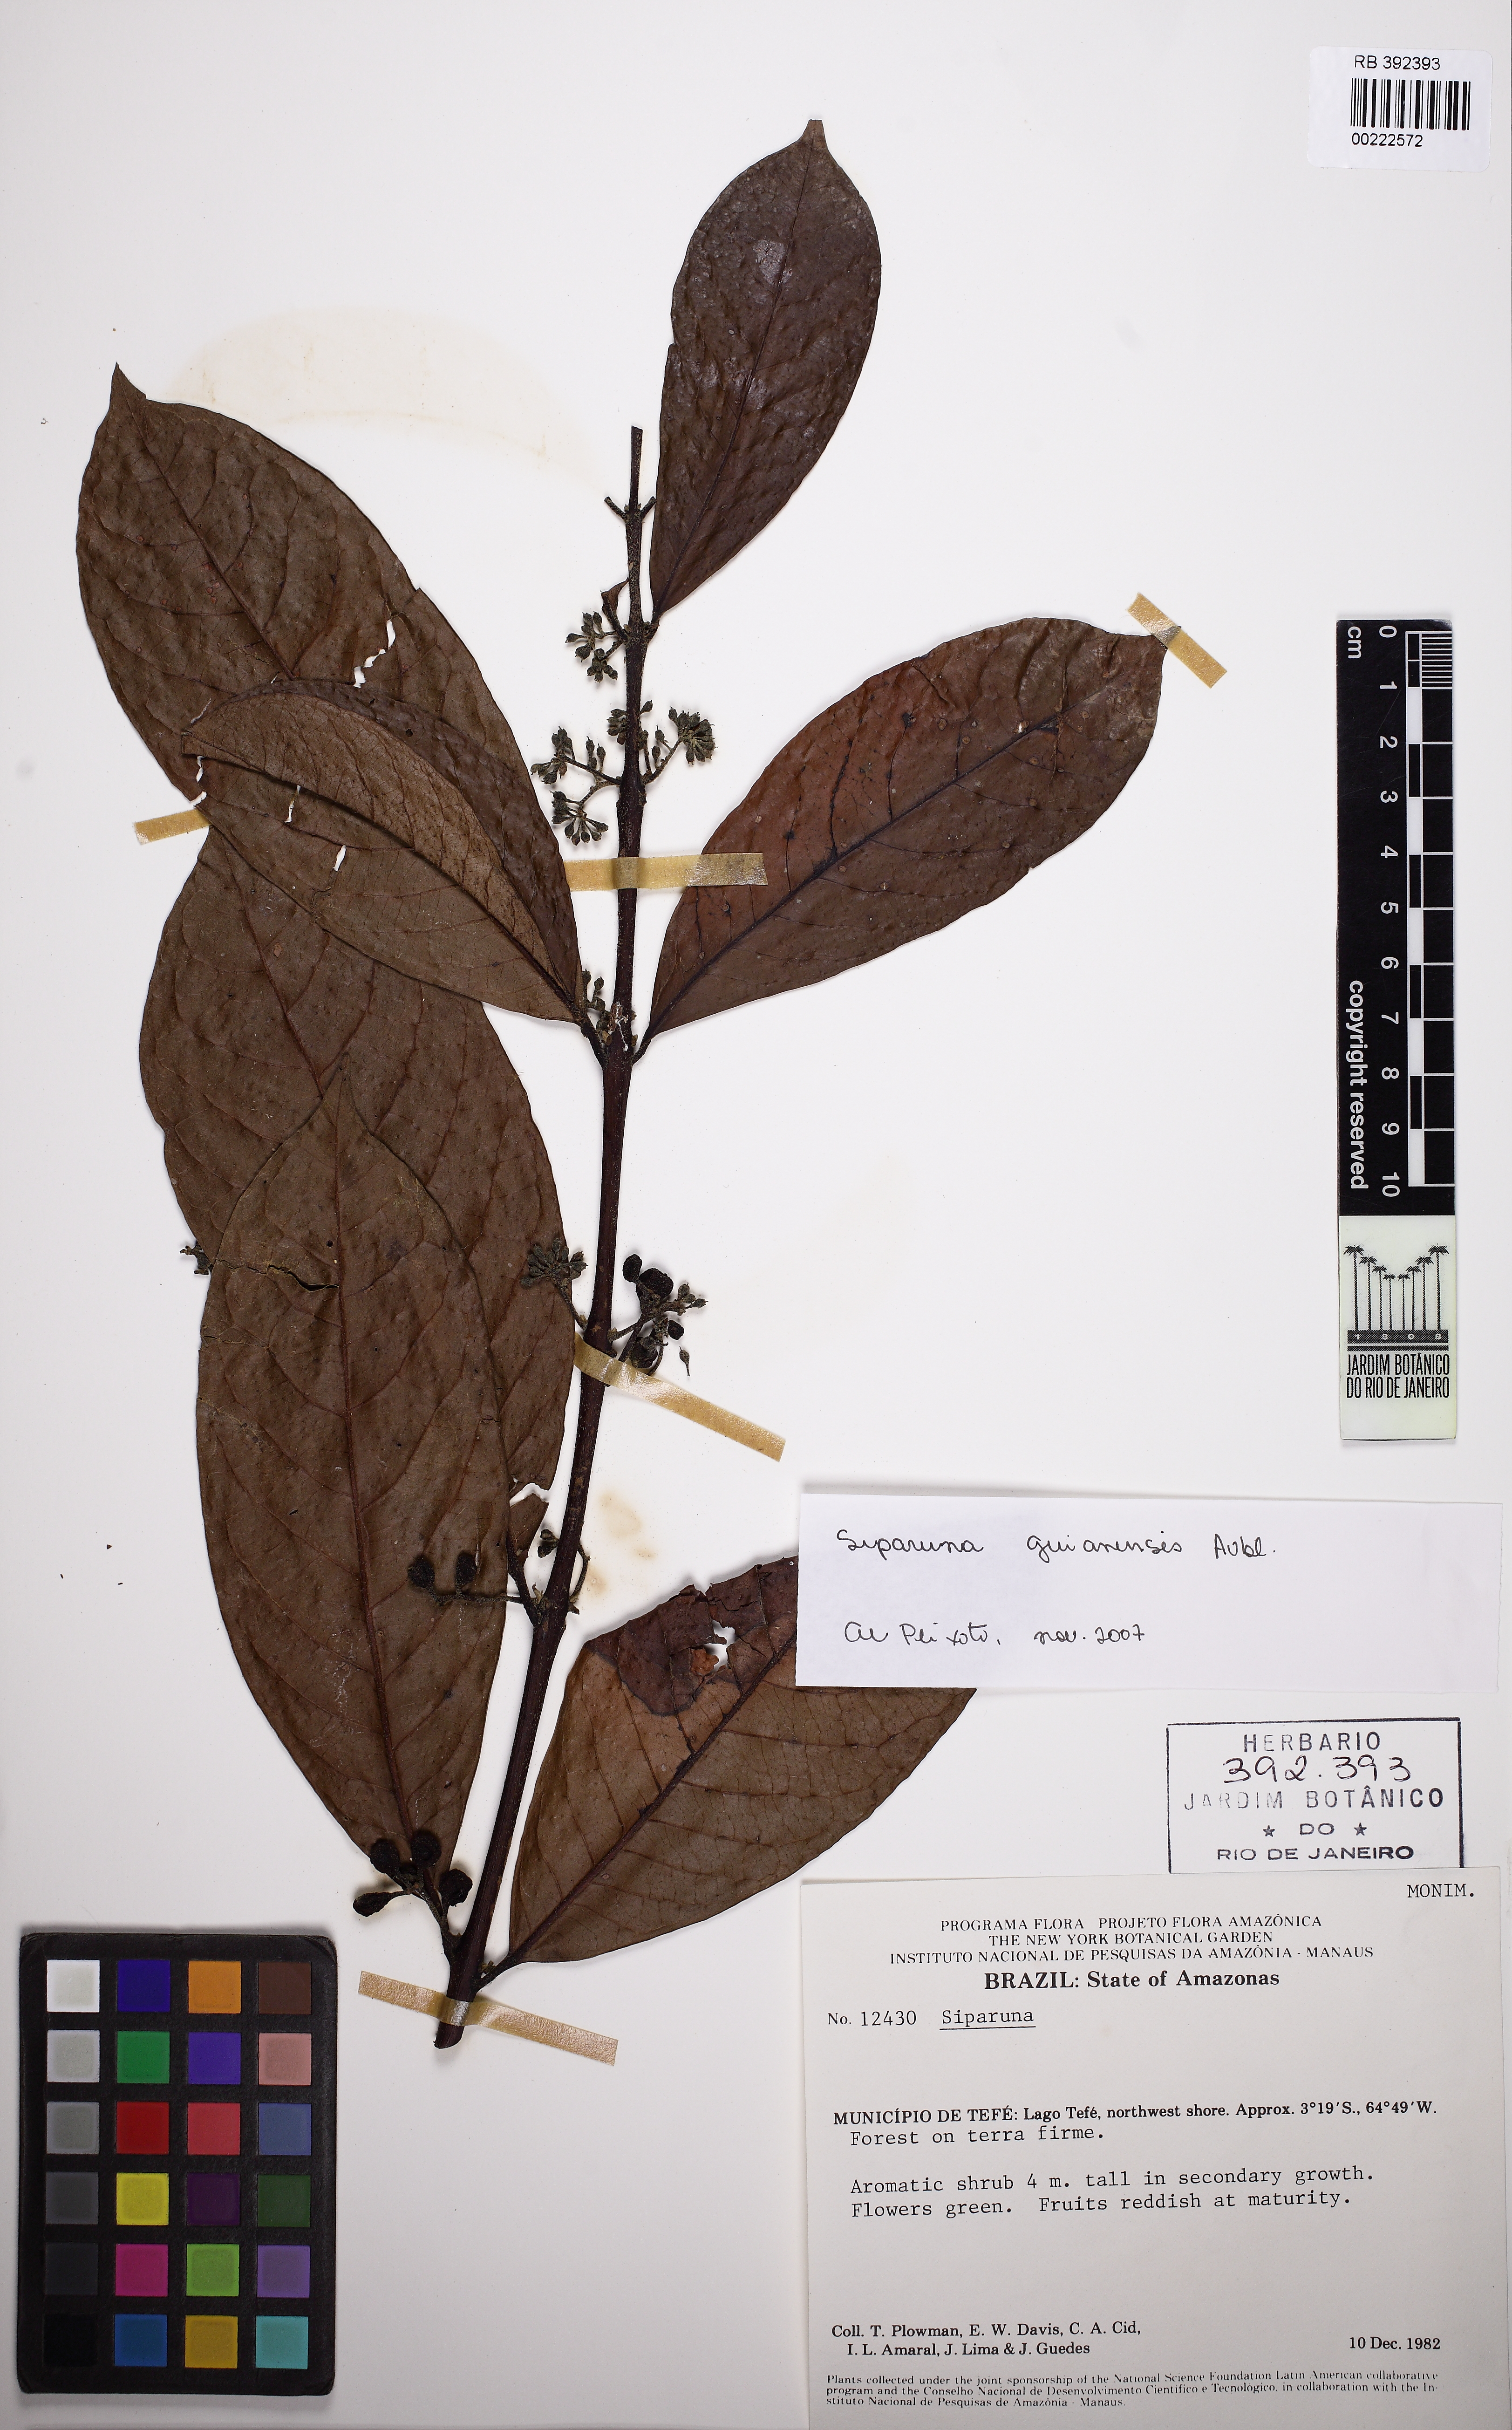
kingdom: Plantae
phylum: Tracheophyta
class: Magnoliopsida
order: Laurales
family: Siparunaceae
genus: Siparuna
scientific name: Siparuna guianensis
